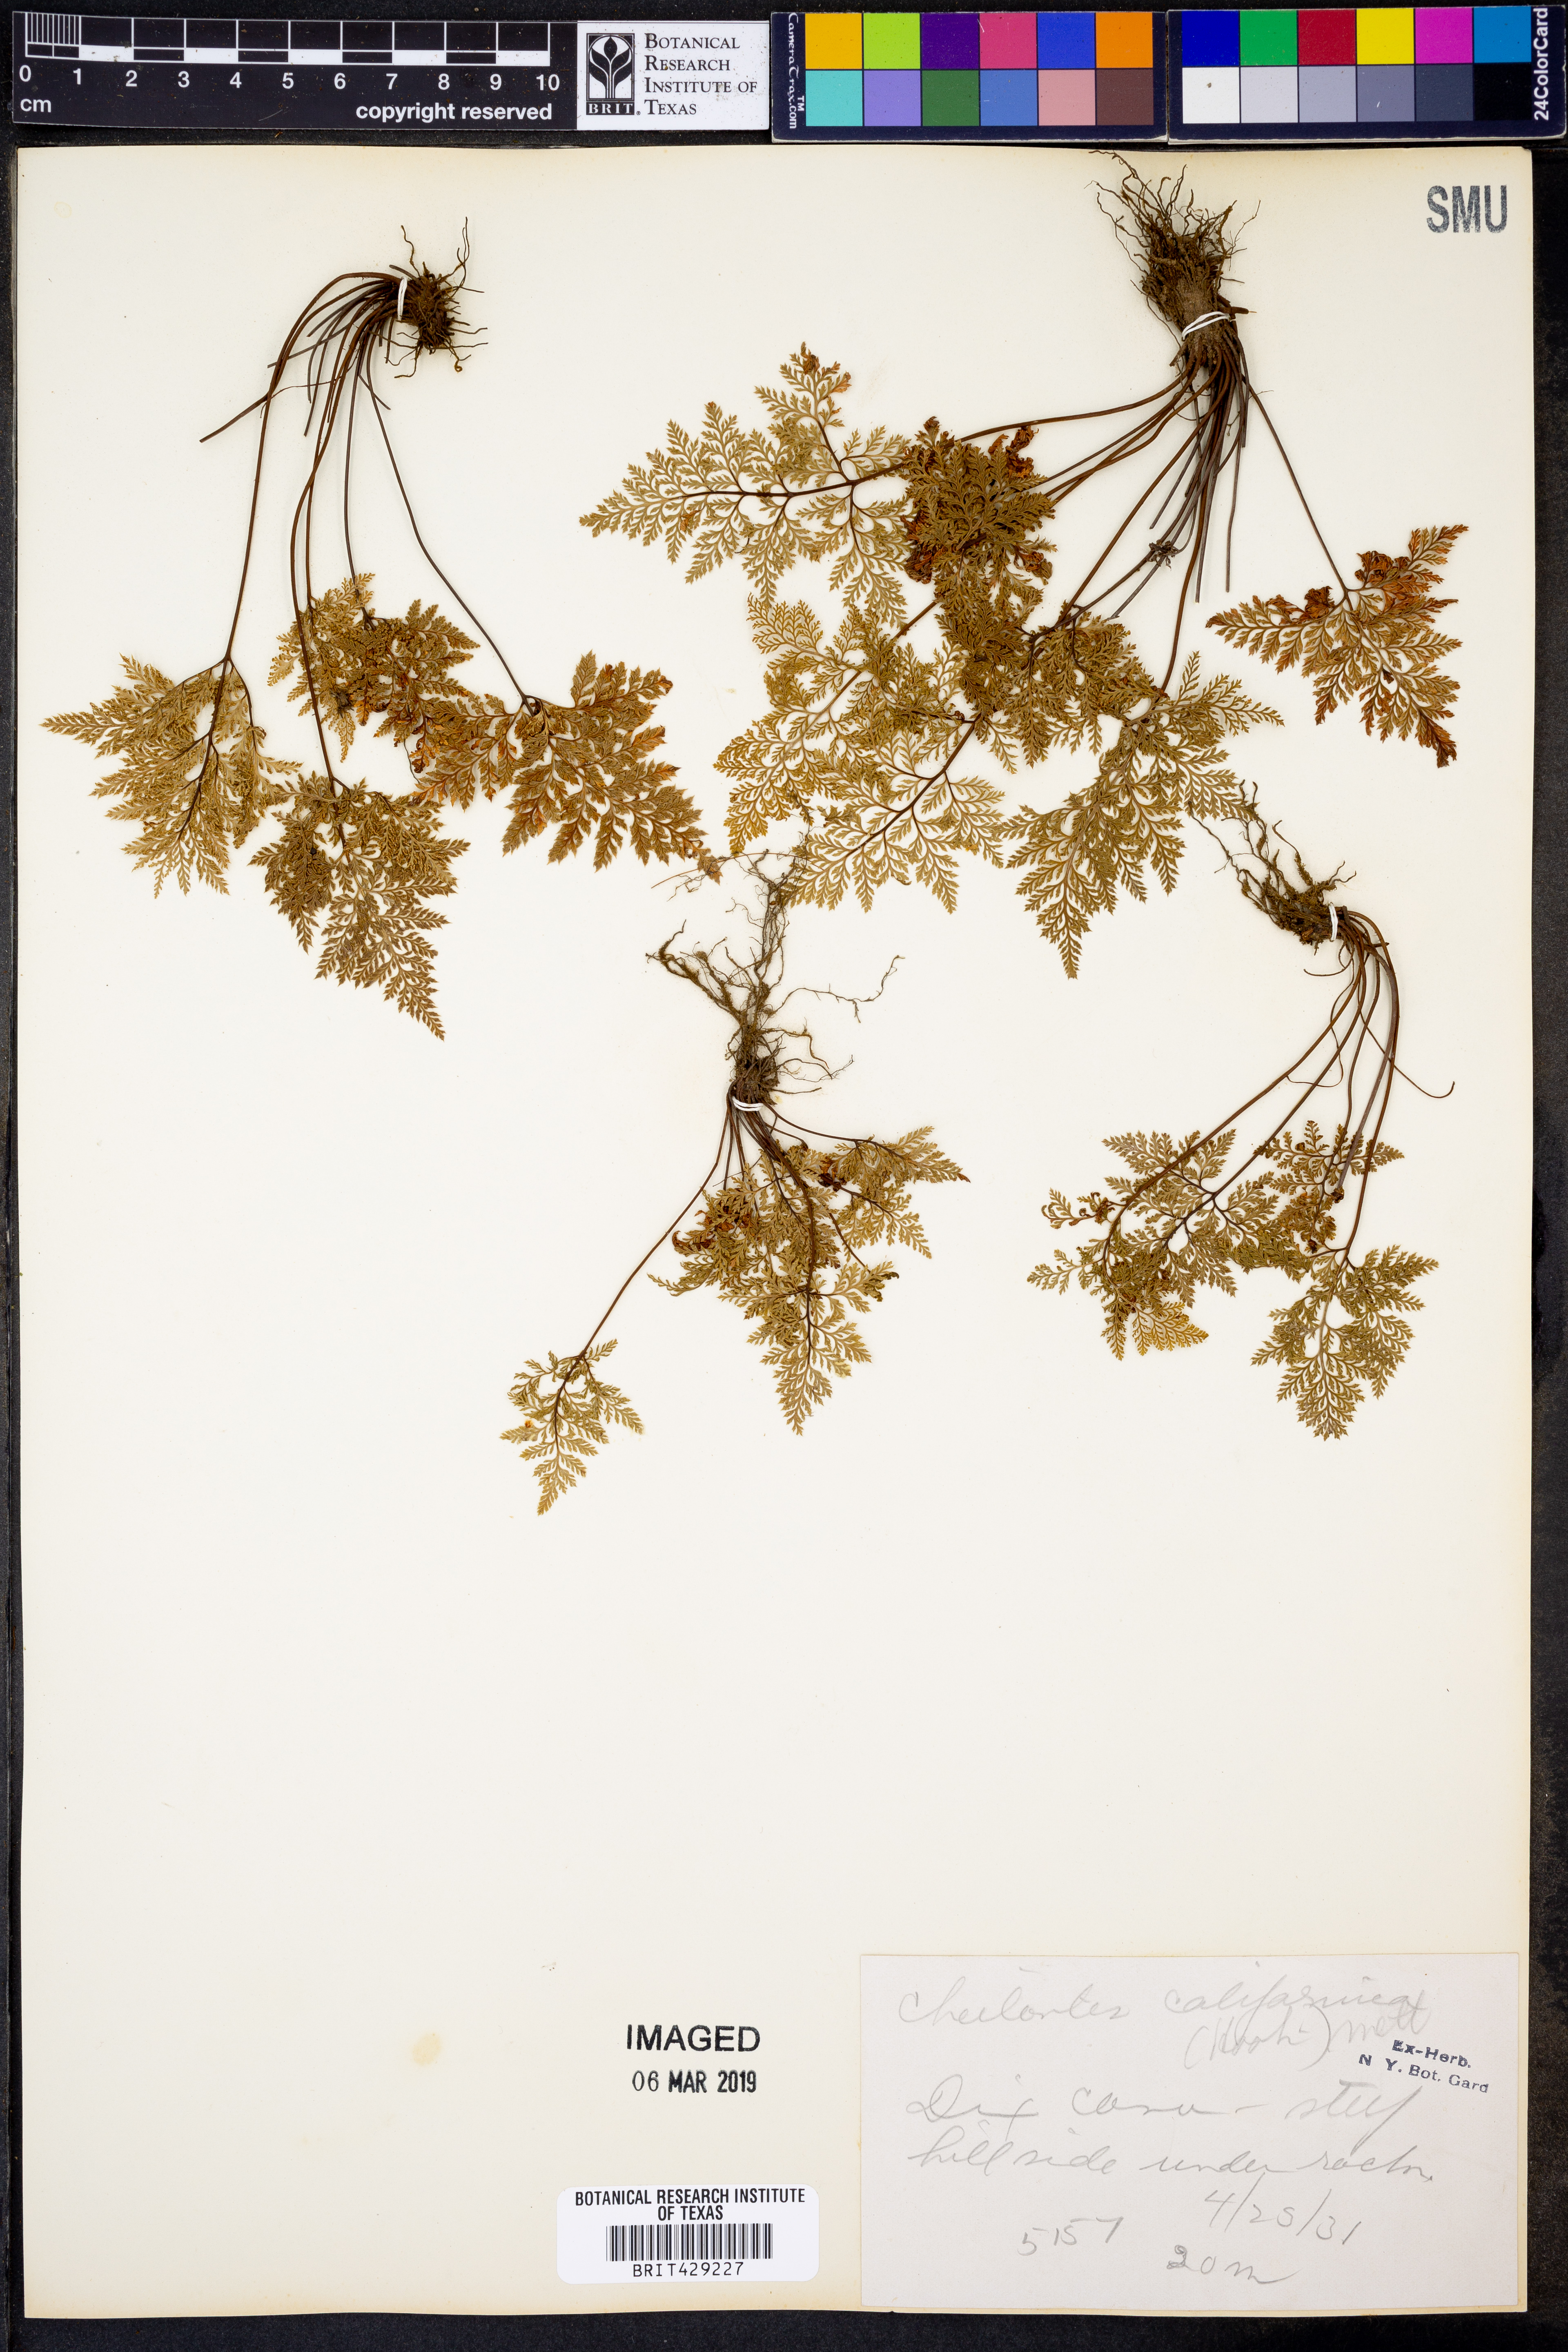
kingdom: Plantae
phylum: Tracheophyta
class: Polypodiopsida
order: Polypodiales
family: Pteridaceae
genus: Aspidotis
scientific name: Aspidotis californica
